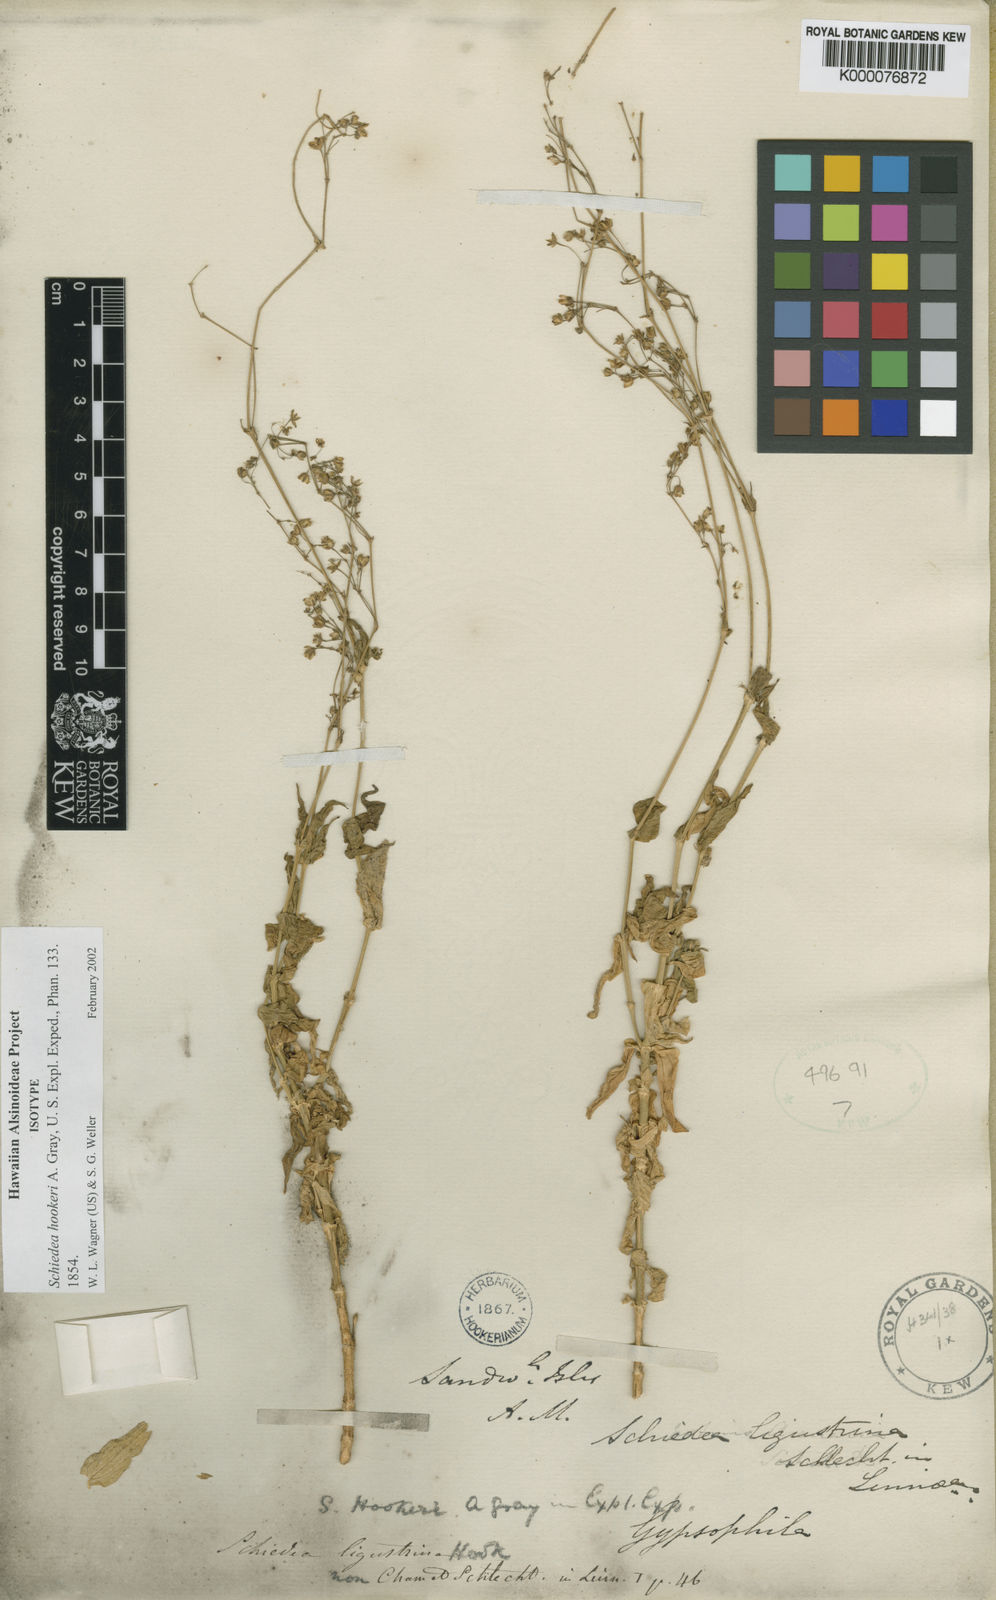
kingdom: Plantae
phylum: Tracheophyta
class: Magnoliopsida
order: Caryophyllales
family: Caryophyllaceae
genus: Schiedea
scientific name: Schiedea hookeri
